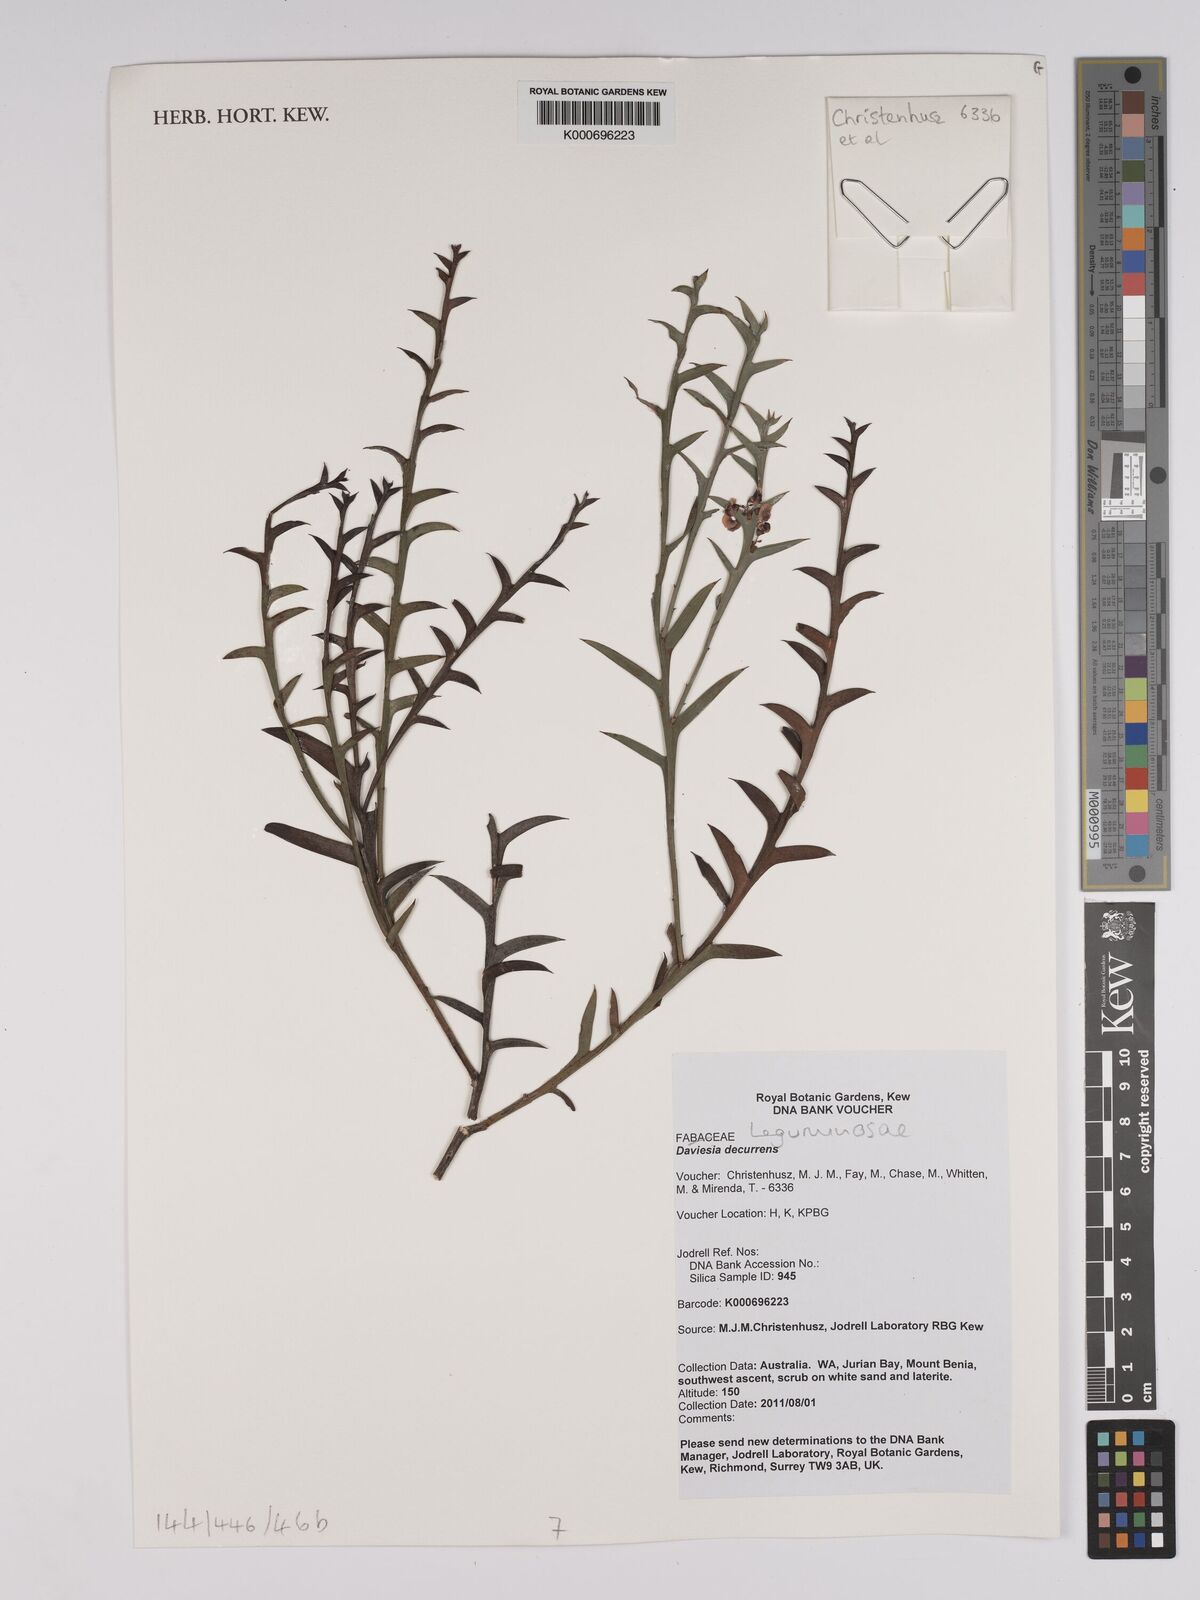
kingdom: Plantae
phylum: Tracheophyta
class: Magnoliopsida
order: Fabales
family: Fabaceae
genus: Daviesia
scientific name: Daviesia decurrens
